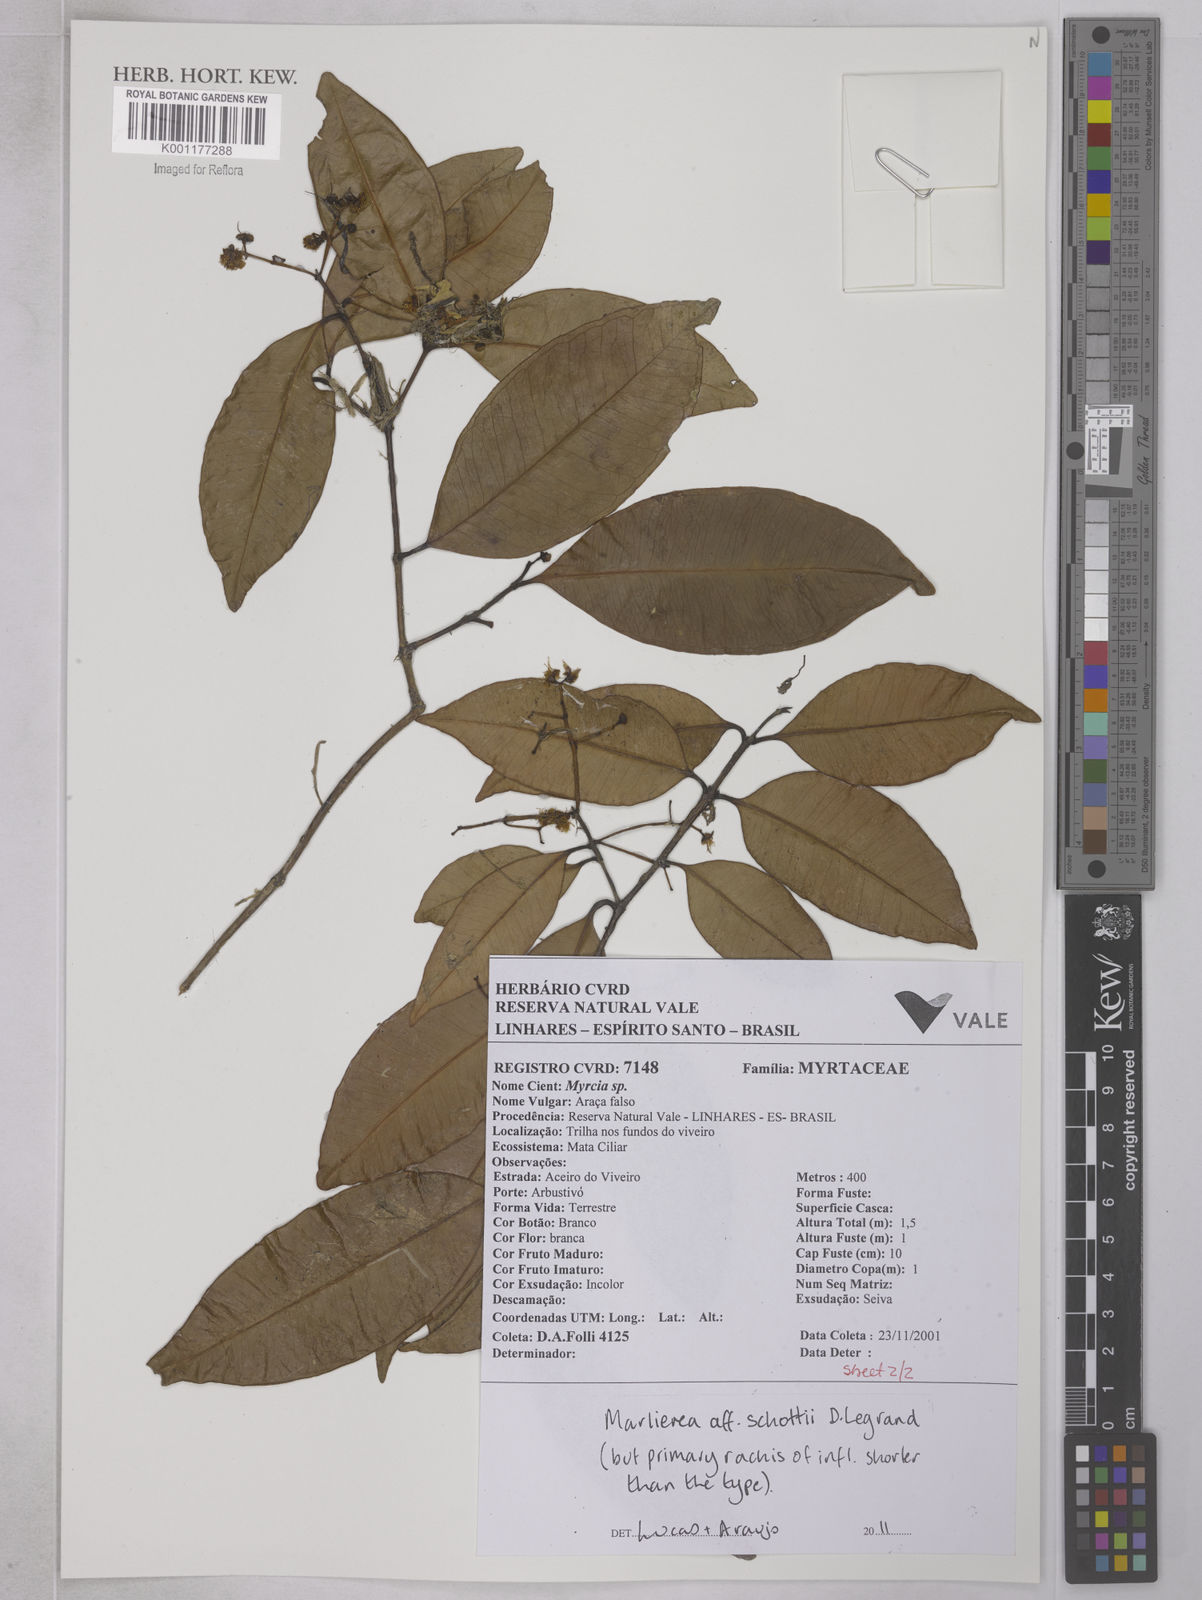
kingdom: Plantae
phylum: Tracheophyta
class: Magnoliopsida
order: Myrtales
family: Myrtaceae
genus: Myrcia
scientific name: Myrcia schottii
